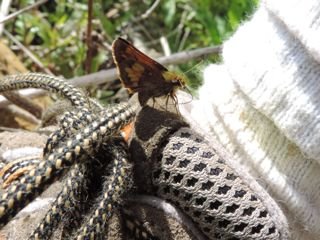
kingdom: Animalia
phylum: Arthropoda
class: Insecta
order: Lepidoptera
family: Hesperiidae
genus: Lon
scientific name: Lon hobomok
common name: Hobomok Skipper
